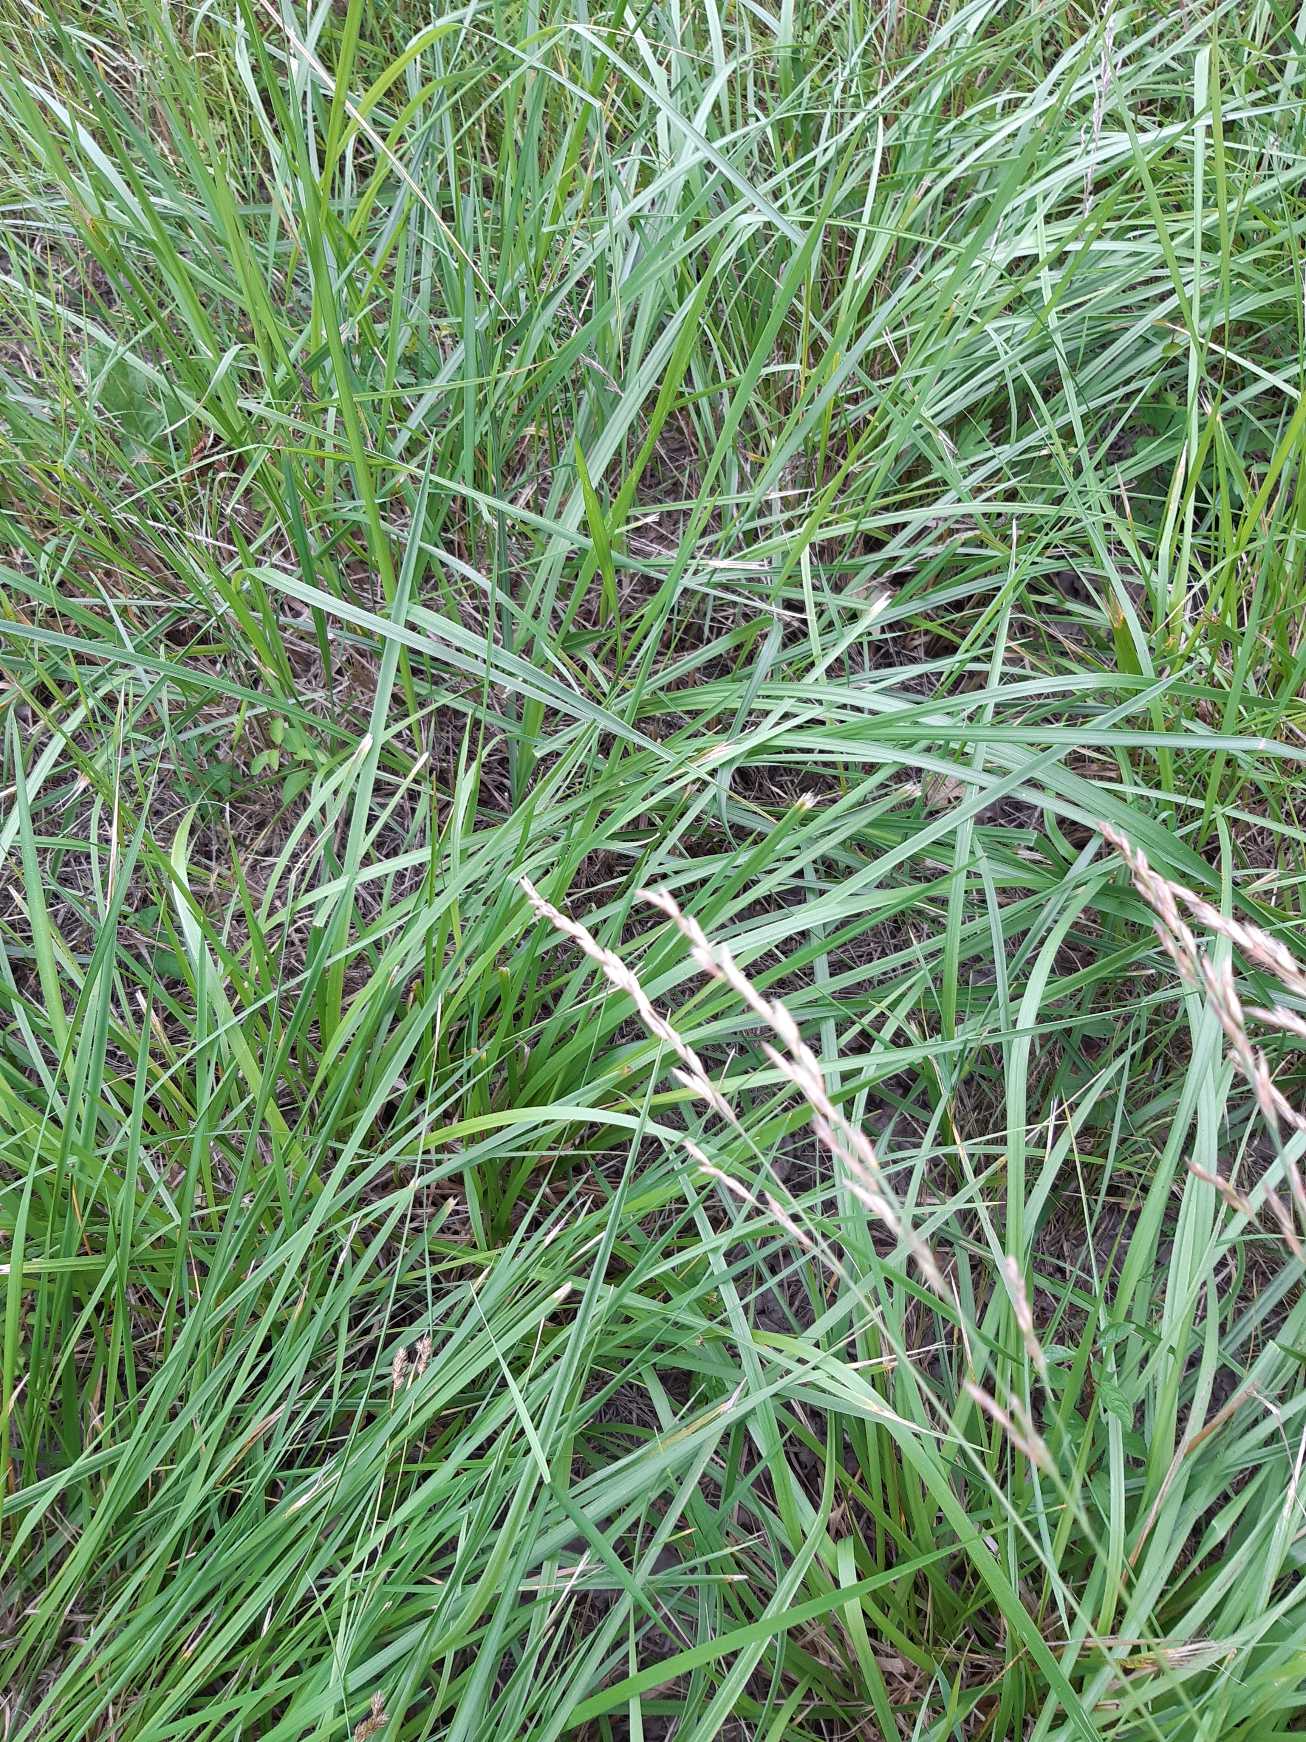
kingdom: Plantae
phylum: Tracheophyta
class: Liliopsida
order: Poales
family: Poaceae
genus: Lolium
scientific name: Lolium arundinaceum
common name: Strand-svingel
